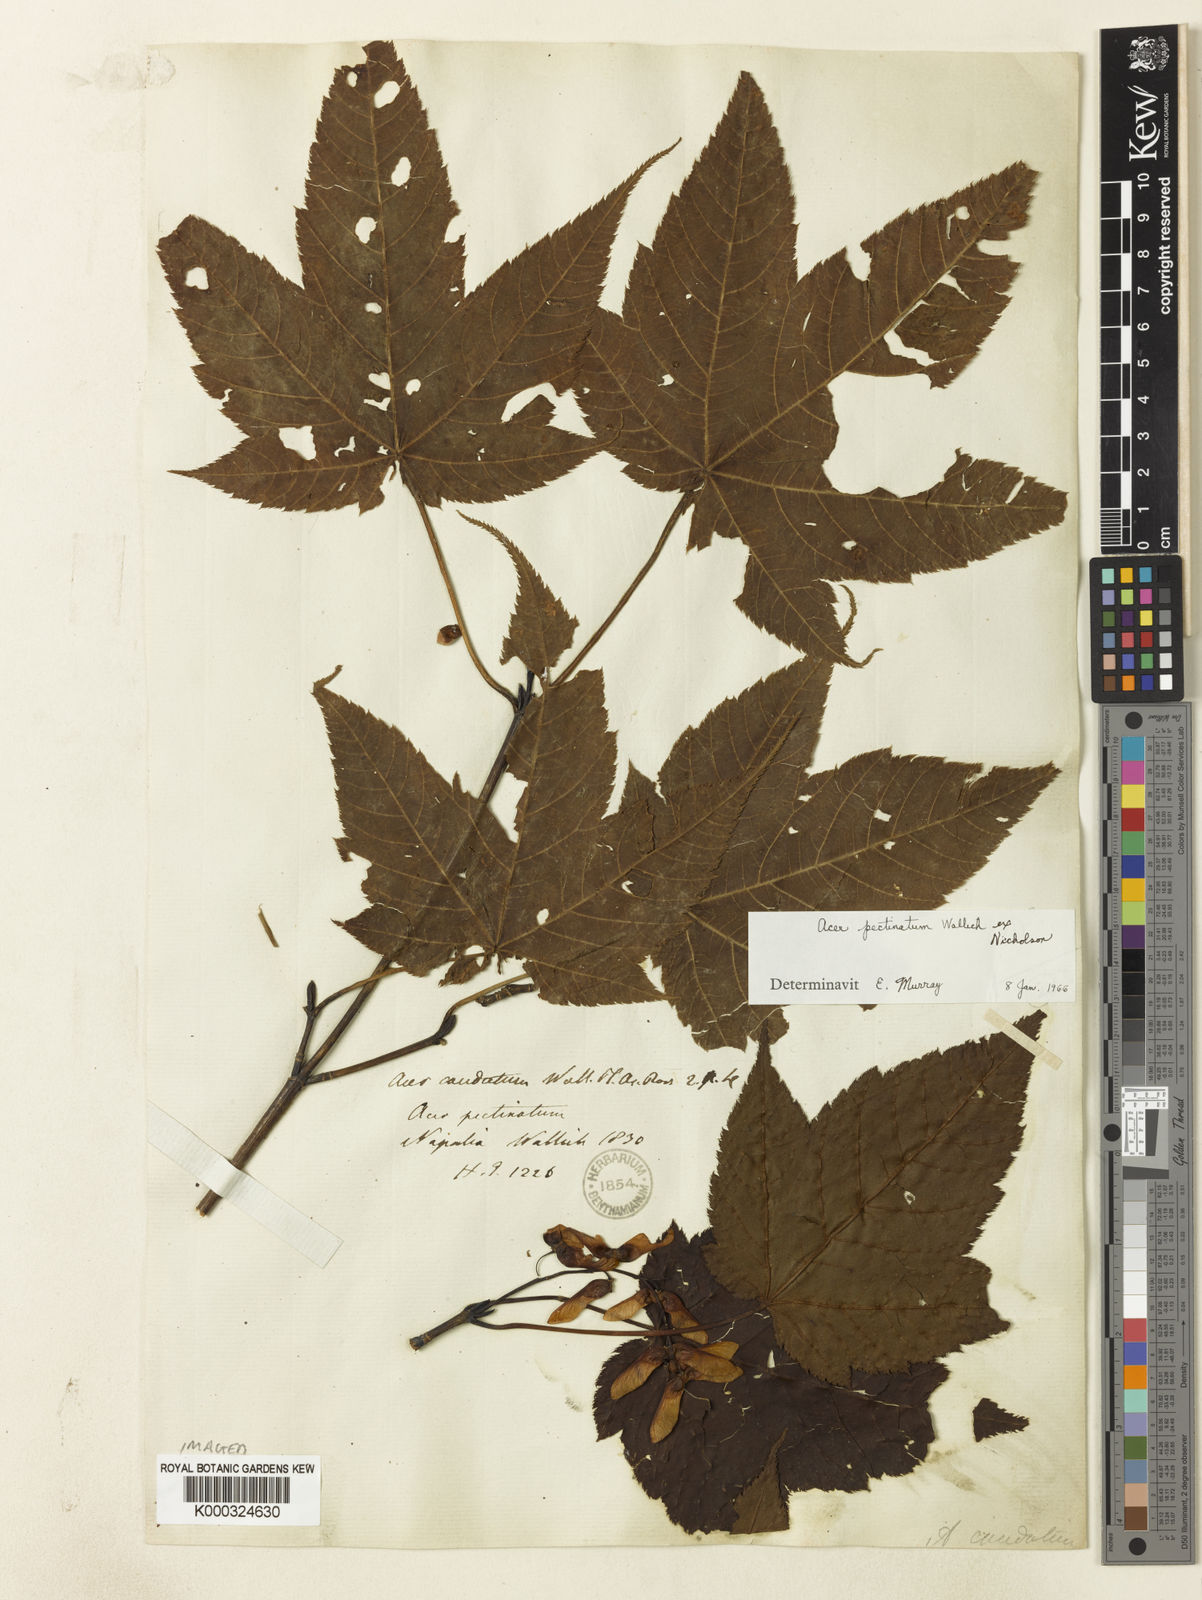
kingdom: Plantae
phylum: Tracheophyta
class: Magnoliopsida
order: Sapindales
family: Sapindaceae
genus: Acer
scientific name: Acer acuminatum
